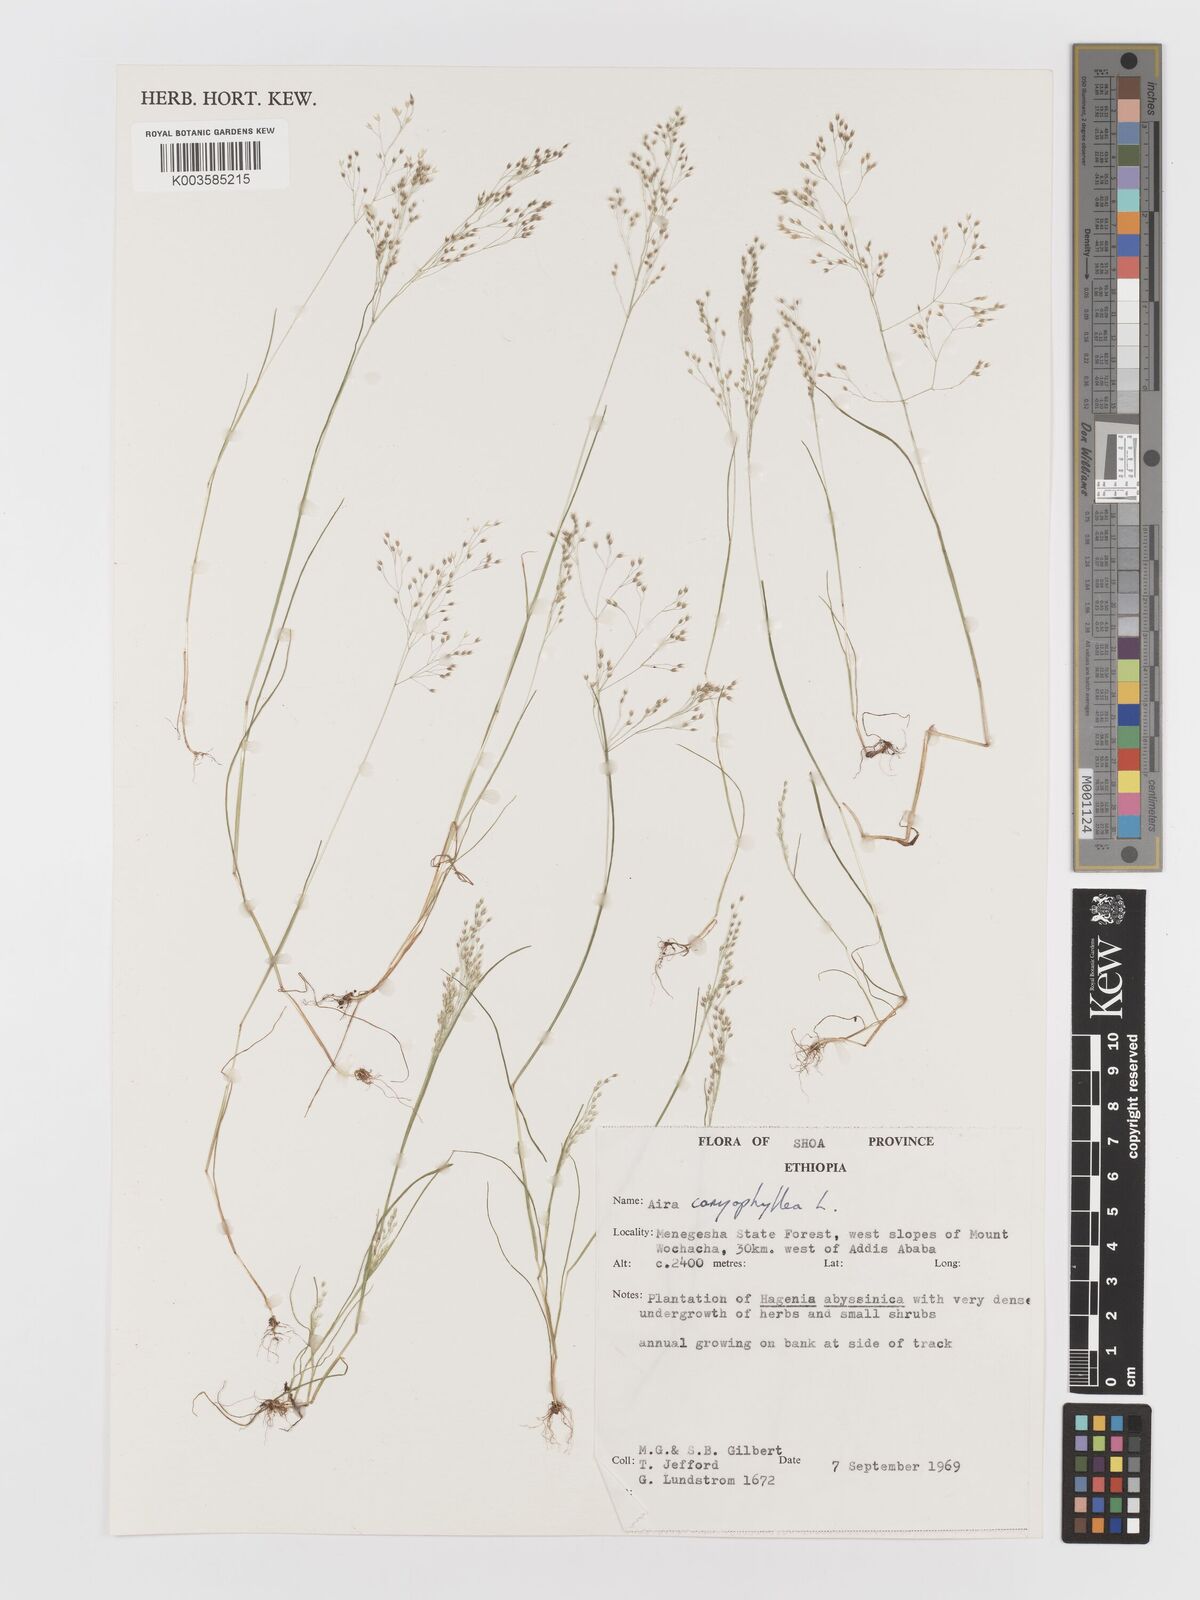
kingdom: Plantae
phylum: Tracheophyta
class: Liliopsida
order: Poales
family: Poaceae
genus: Aira
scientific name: Aira caryophyllea
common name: Silver hairgrass
